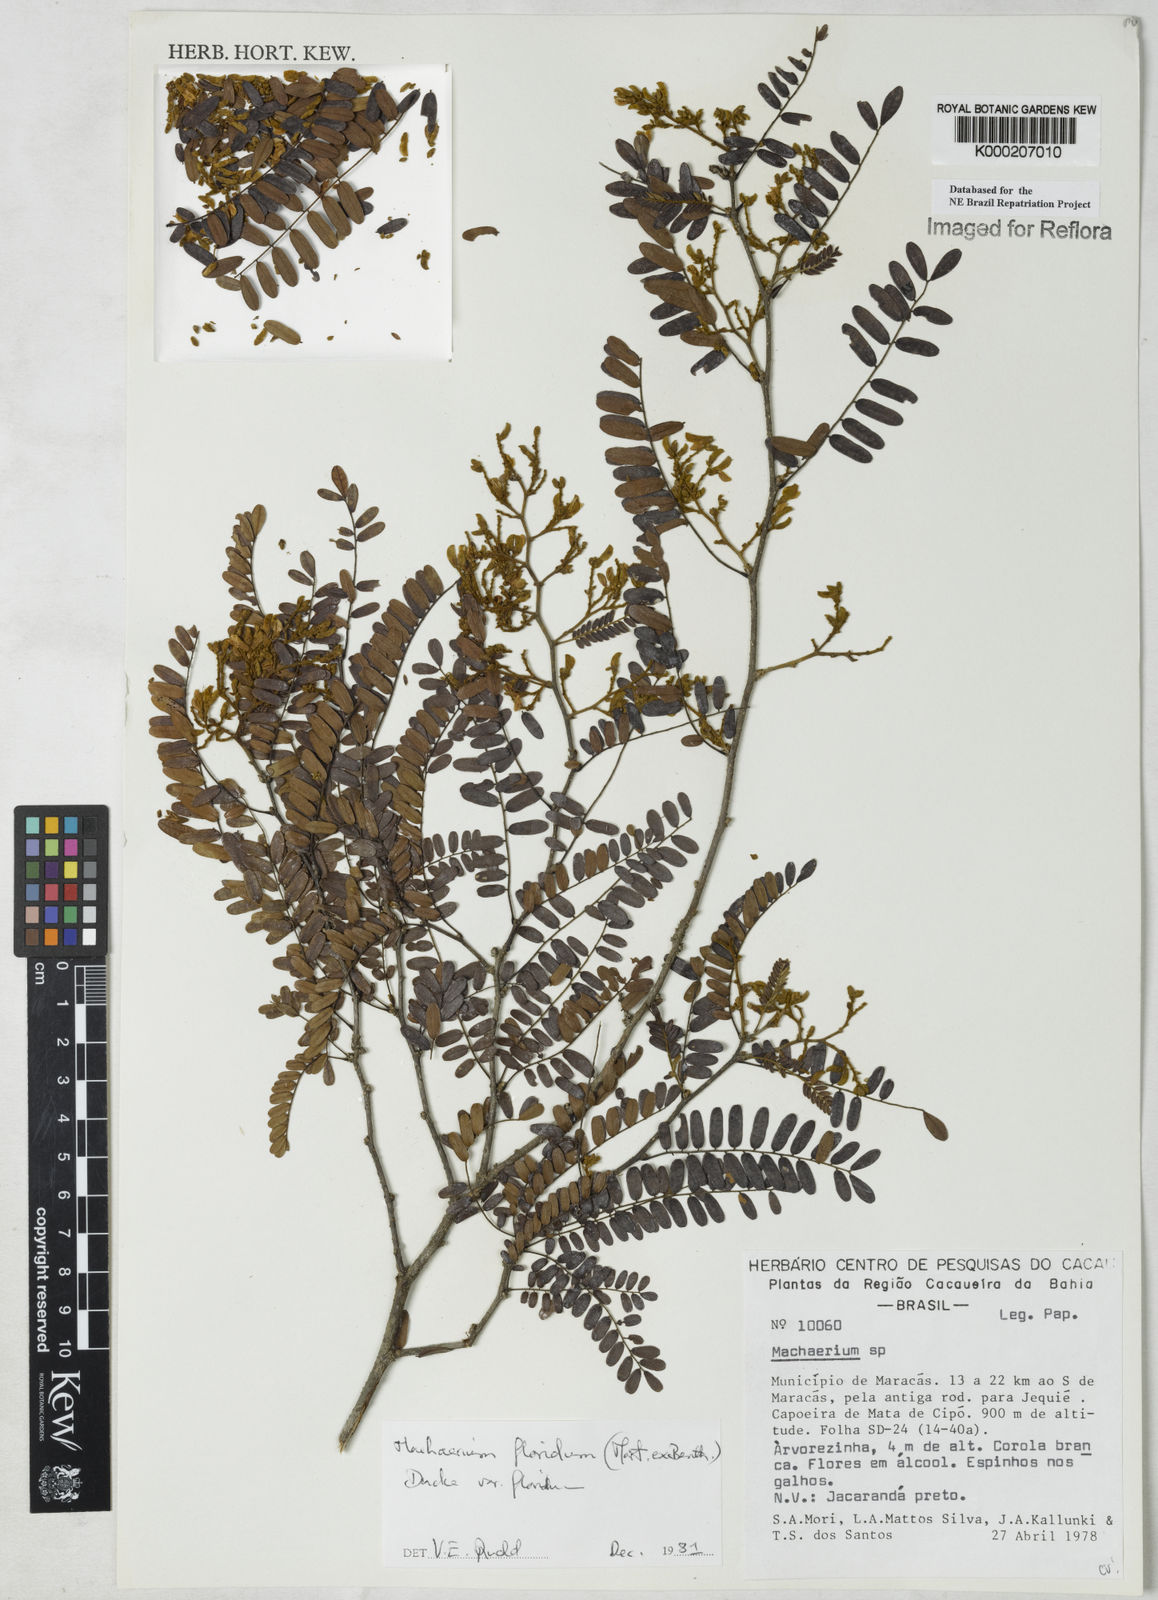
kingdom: Plantae
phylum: Tracheophyta
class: Magnoliopsida
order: Fabales
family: Fabaceae
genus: Machaerium
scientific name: Machaerium floridum
